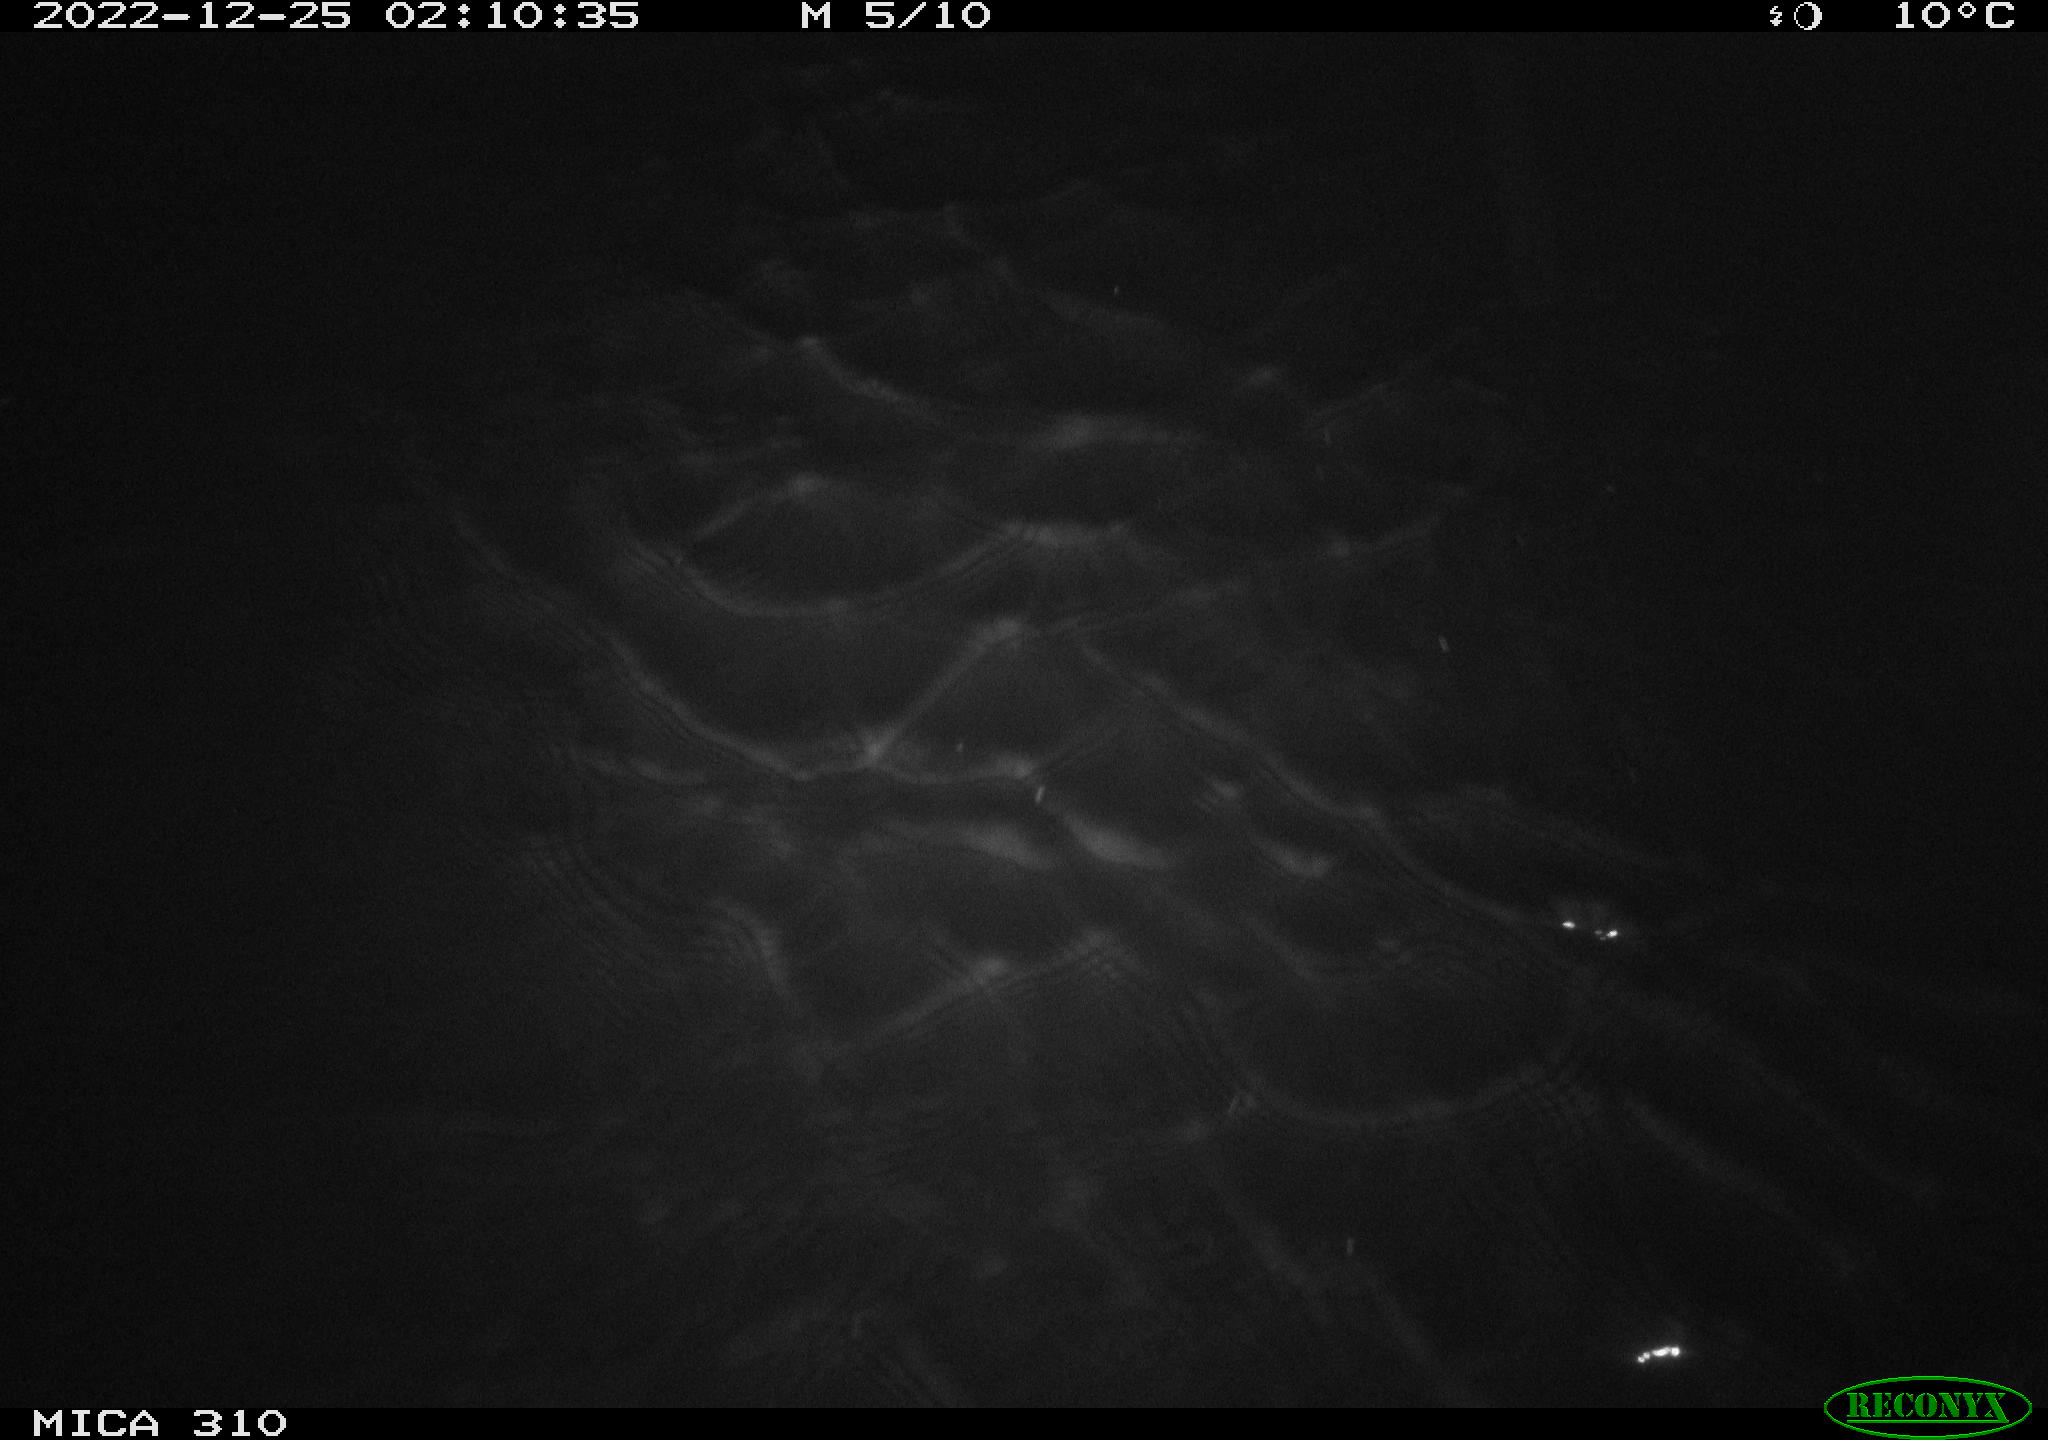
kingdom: Animalia
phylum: Chordata
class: Mammalia
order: Rodentia
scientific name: Rodentia
